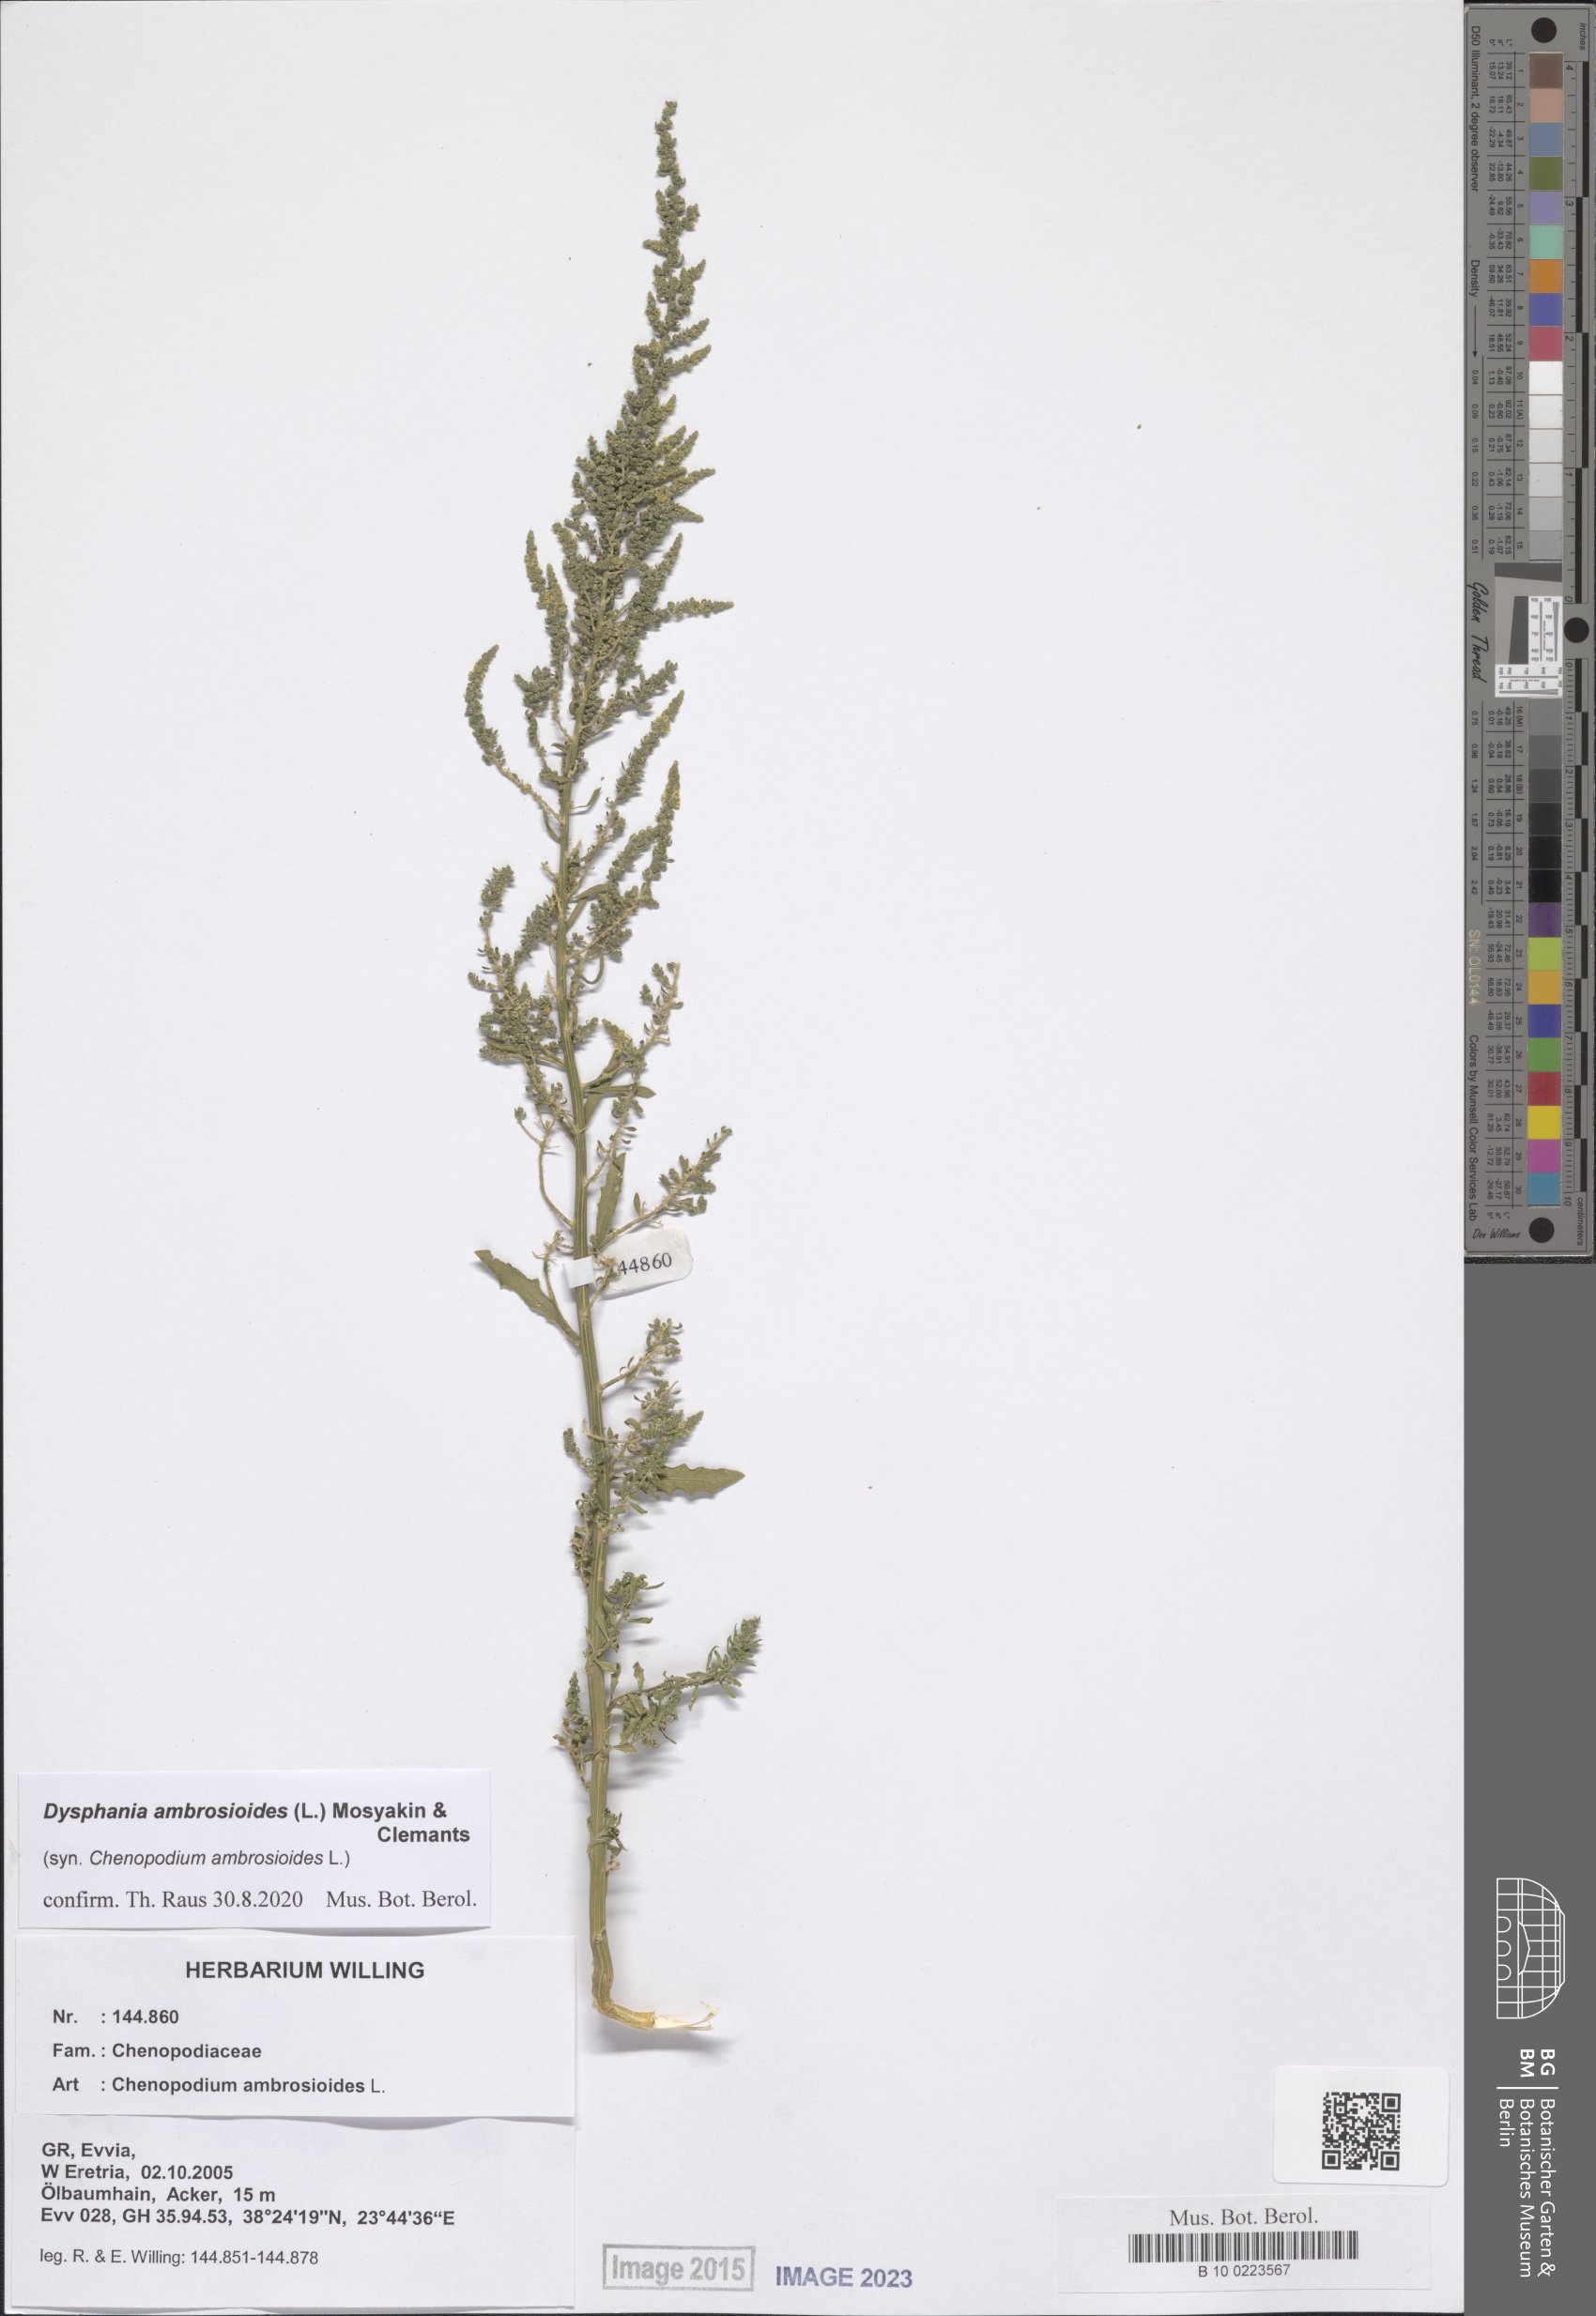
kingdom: Plantae
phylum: Tracheophyta
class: Magnoliopsida
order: Caryophyllales
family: Amaranthaceae
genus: Dysphania
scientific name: Dysphania ambrosioides
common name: Wormseed
